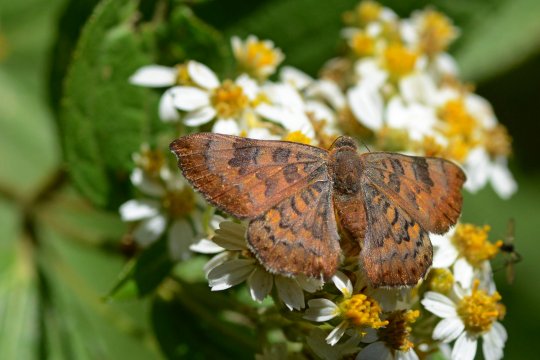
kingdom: Animalia
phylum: Arthropoda
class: Insecta
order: Lepidoptera
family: Lycaenidae
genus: Emesis
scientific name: Emesis emesia
